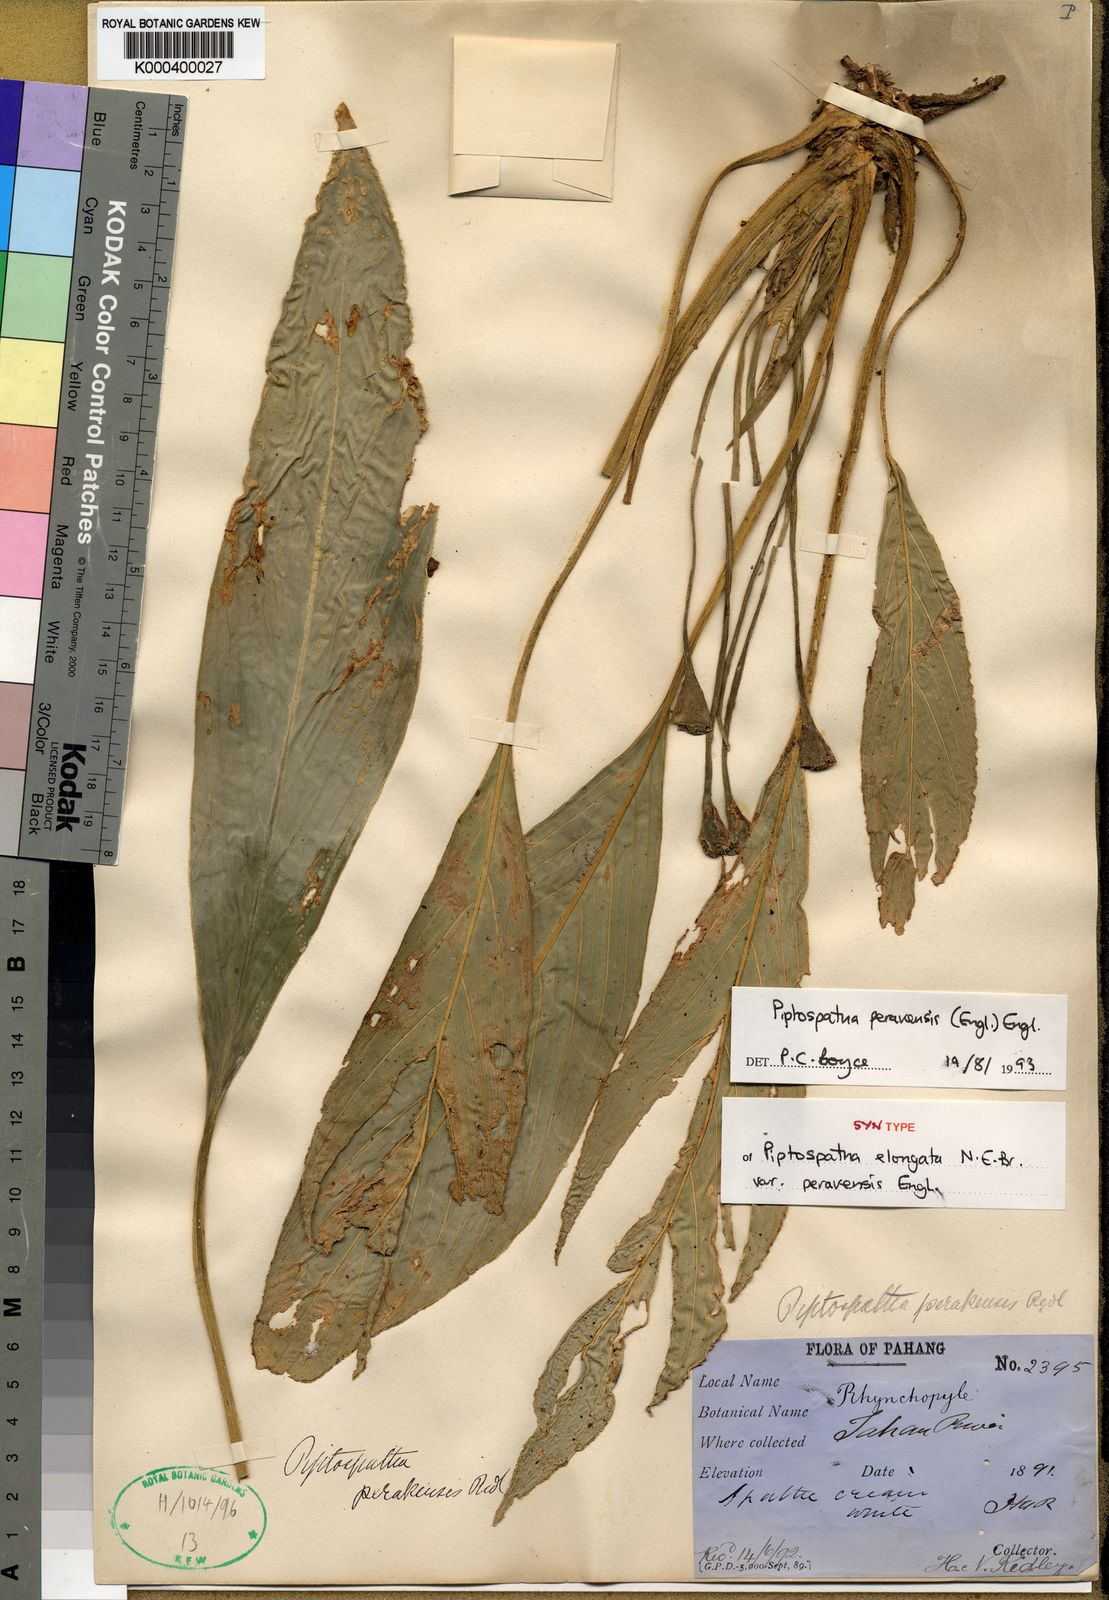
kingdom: Plantae
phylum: Tracheophyta
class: Liliopsida
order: Alismatales
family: Araceae
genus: Kiewia
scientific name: Kiewia perakensis
